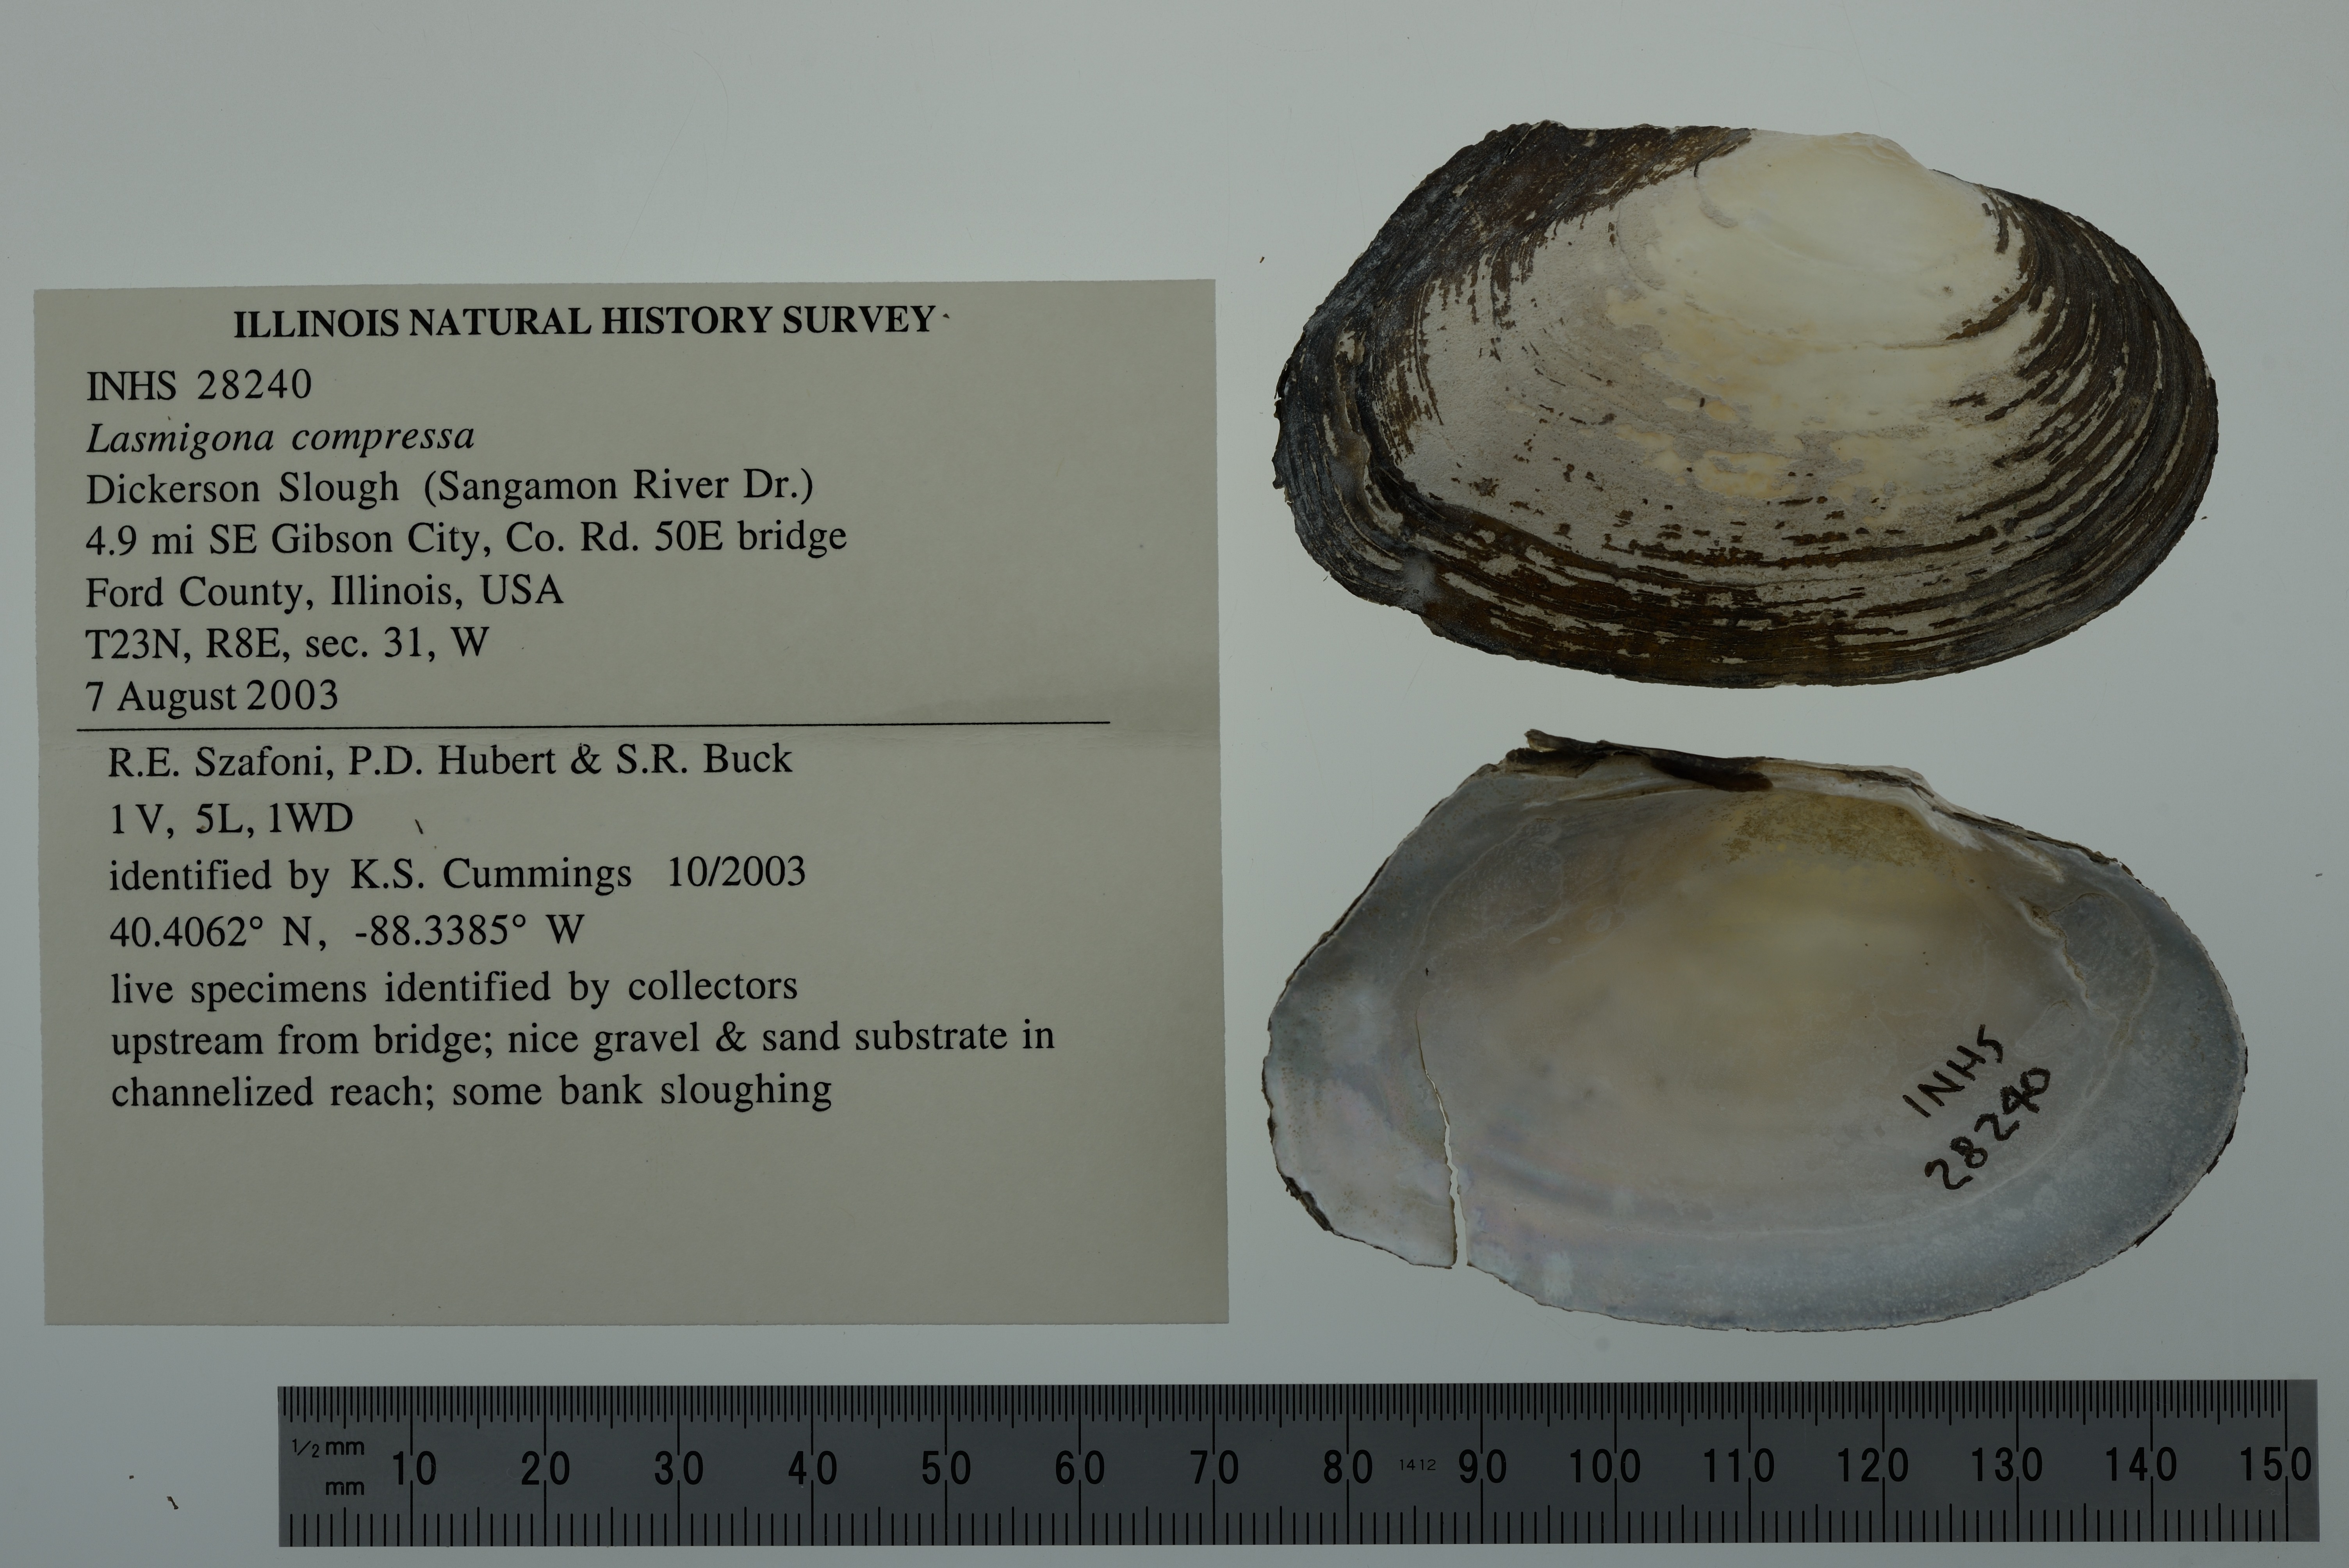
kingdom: Animalia
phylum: Mollusca
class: Bivalvia
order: Unionida
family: Unionidae
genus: Lasmigona
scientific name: Lasmigona compressa
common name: Creek heelsplitter
